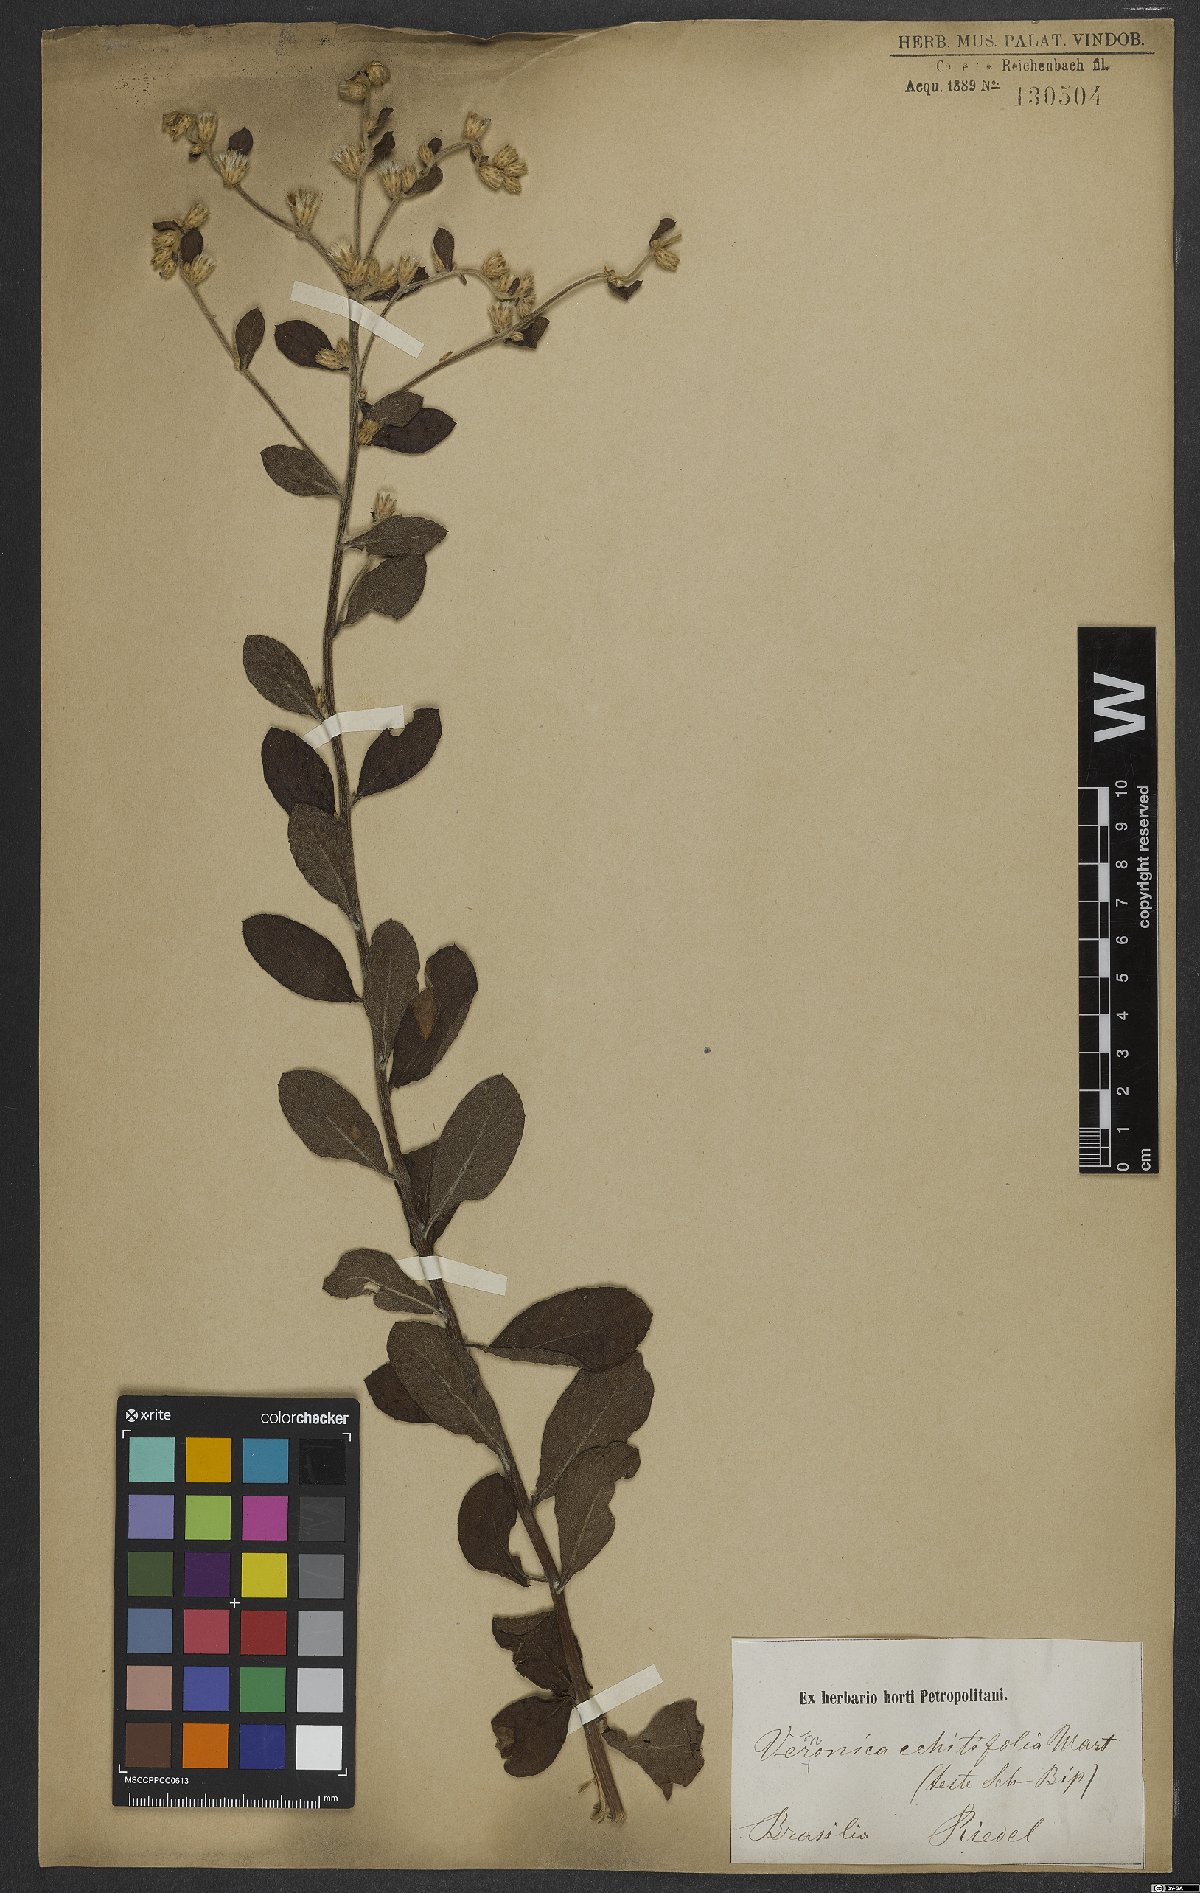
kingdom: Plantae
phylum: Tracheophyta
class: Magnoliopsida
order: Asterales
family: Asteraceae
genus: Acilepidopsis
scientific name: Acilepidopsis echitifolia
